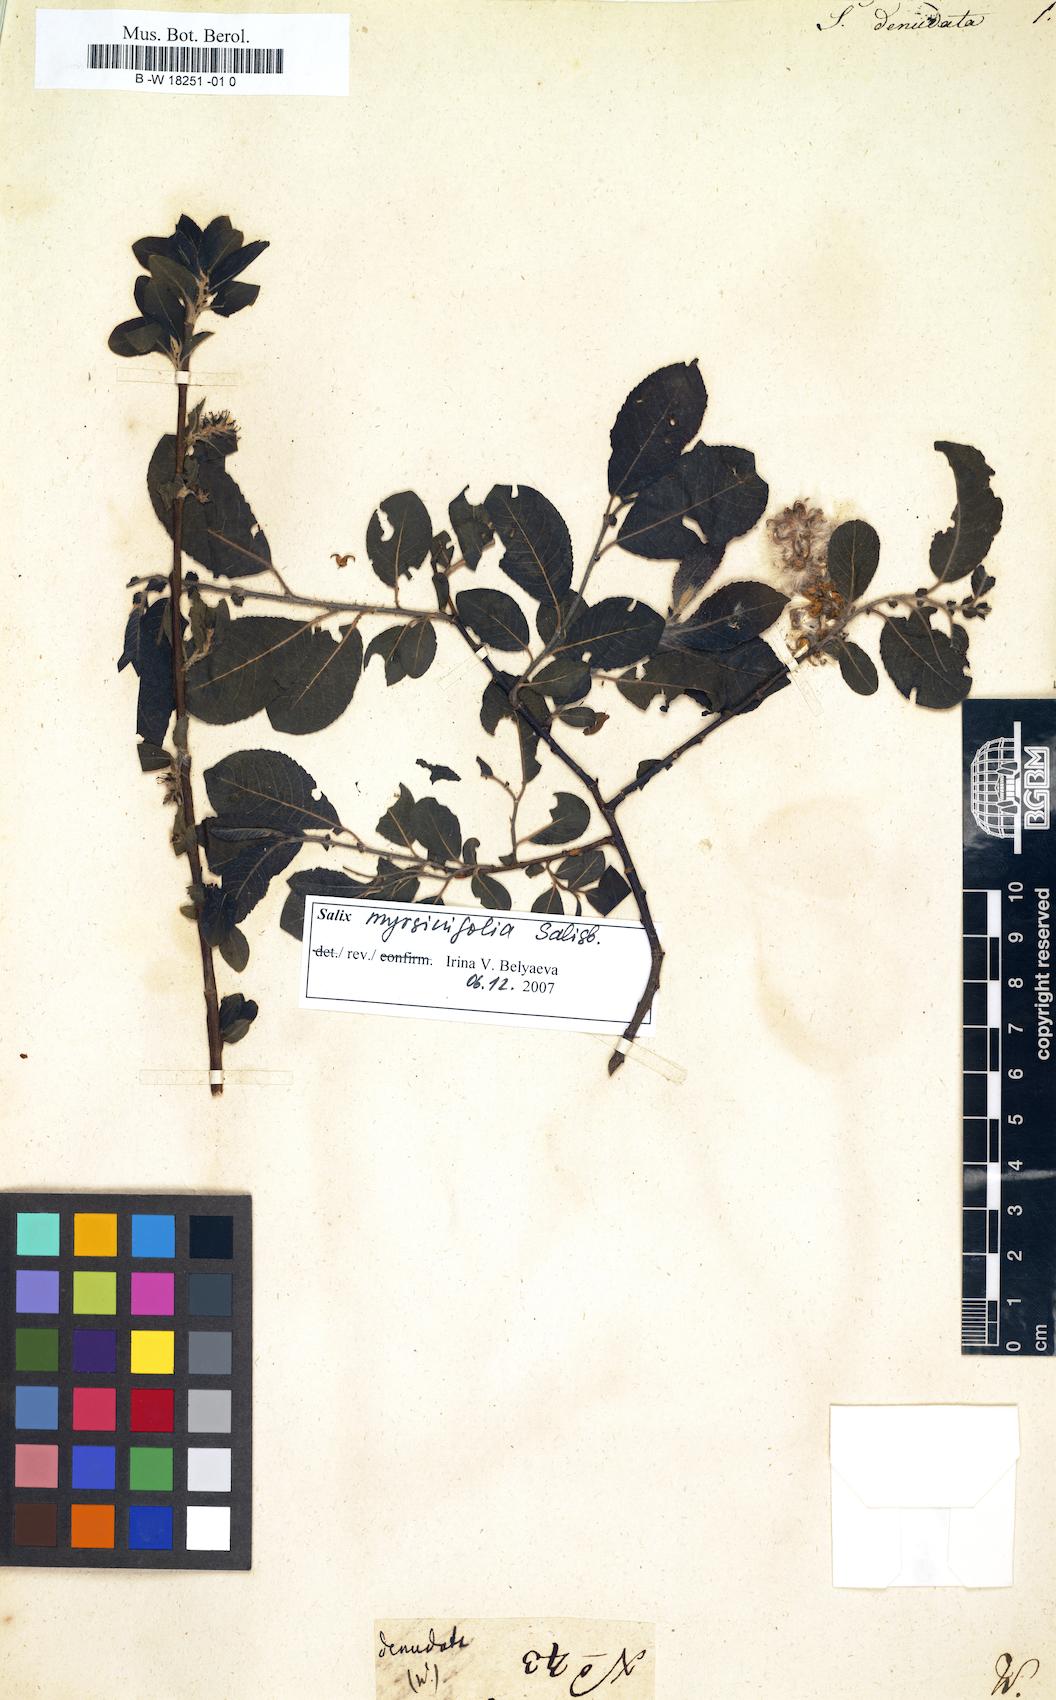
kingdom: Plantae
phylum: Tracheophyta
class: Magnoliopsida
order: Malpighiales
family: Salicaceae
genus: Salix
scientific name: Salix
